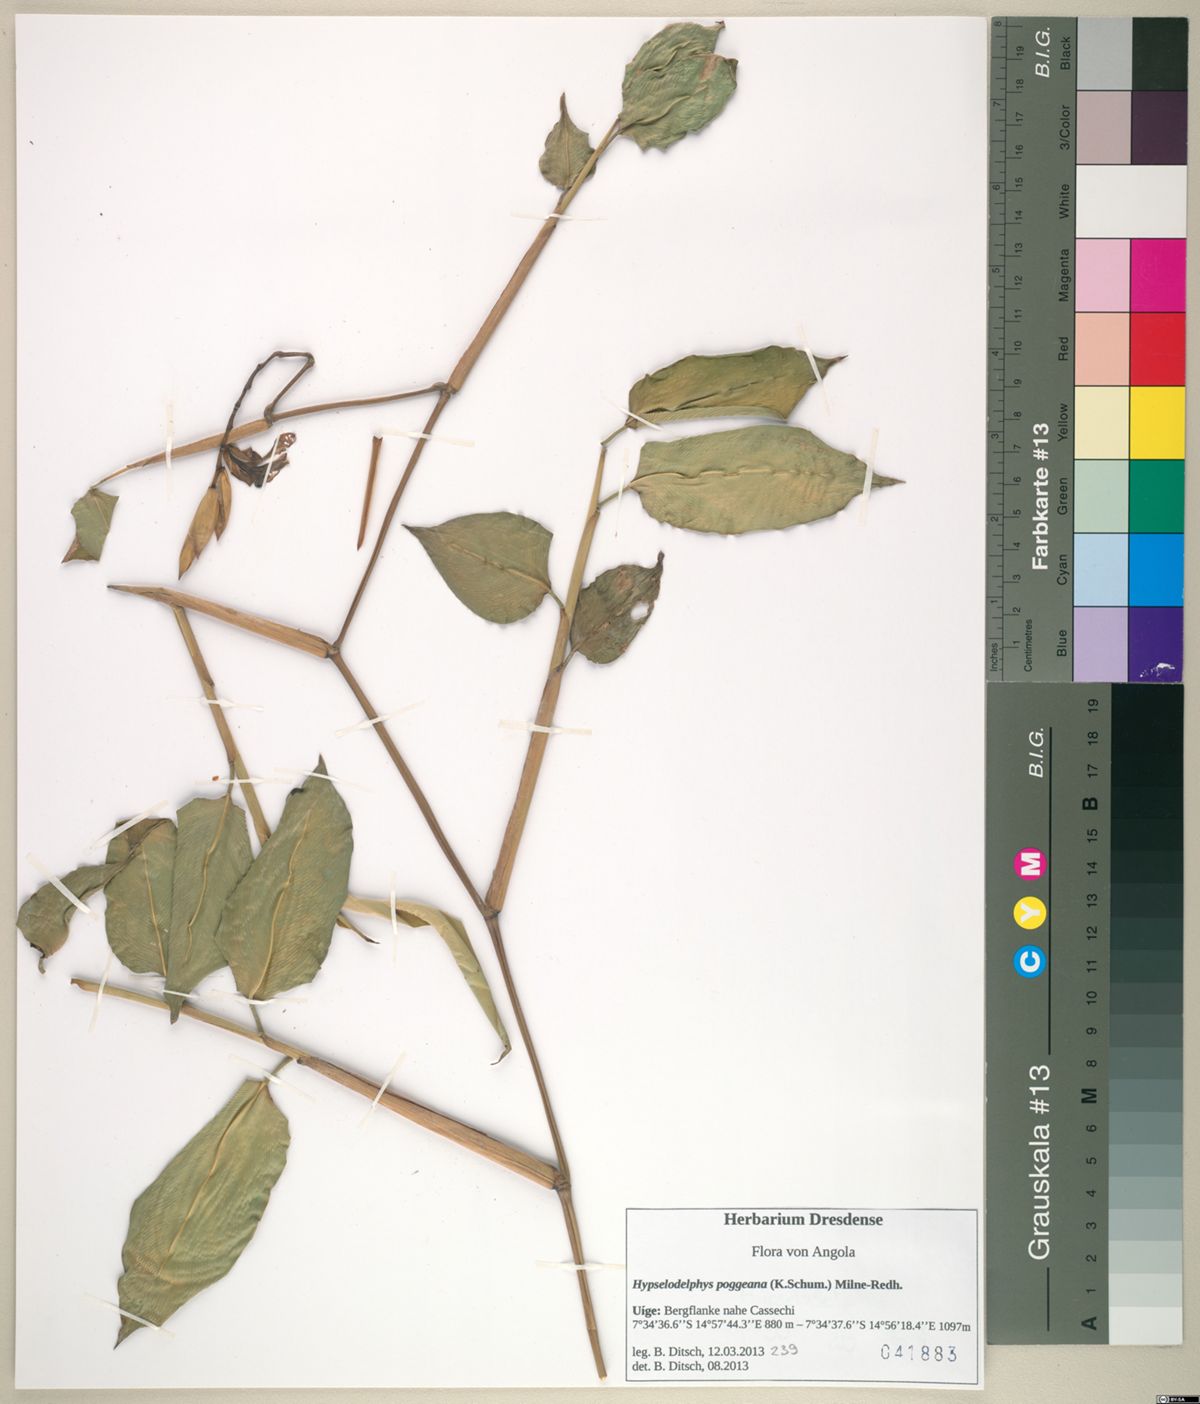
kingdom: Plantae
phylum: Tracheophyta
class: Liliopsida
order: Zingiberales
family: Marantaceae
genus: Hypselodelphys
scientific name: Hypselodelphys poggeana
